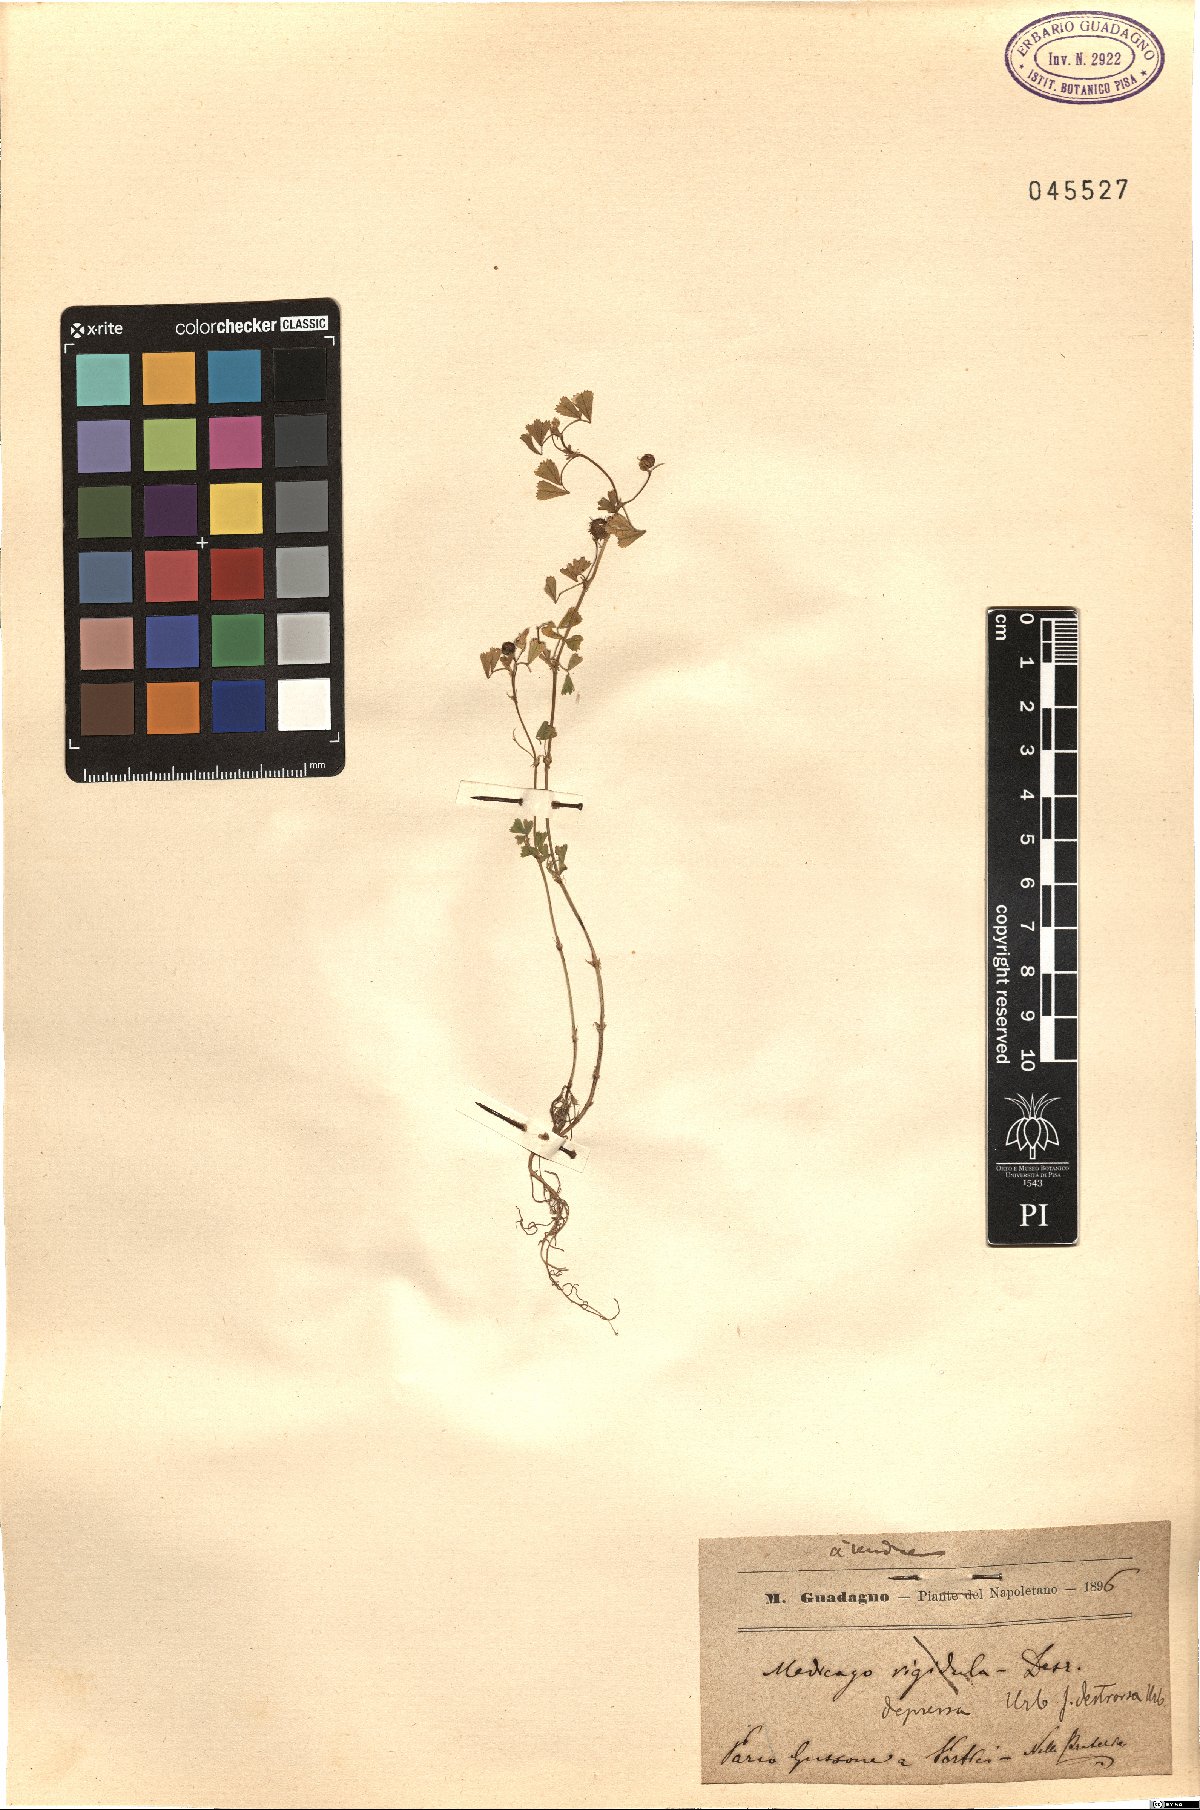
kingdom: Plantae
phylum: Tracheophyta
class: Magnoliopsida
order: Fabales
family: Fabaceae
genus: Medicago
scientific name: Medicago rigidula
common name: Tifton medic
